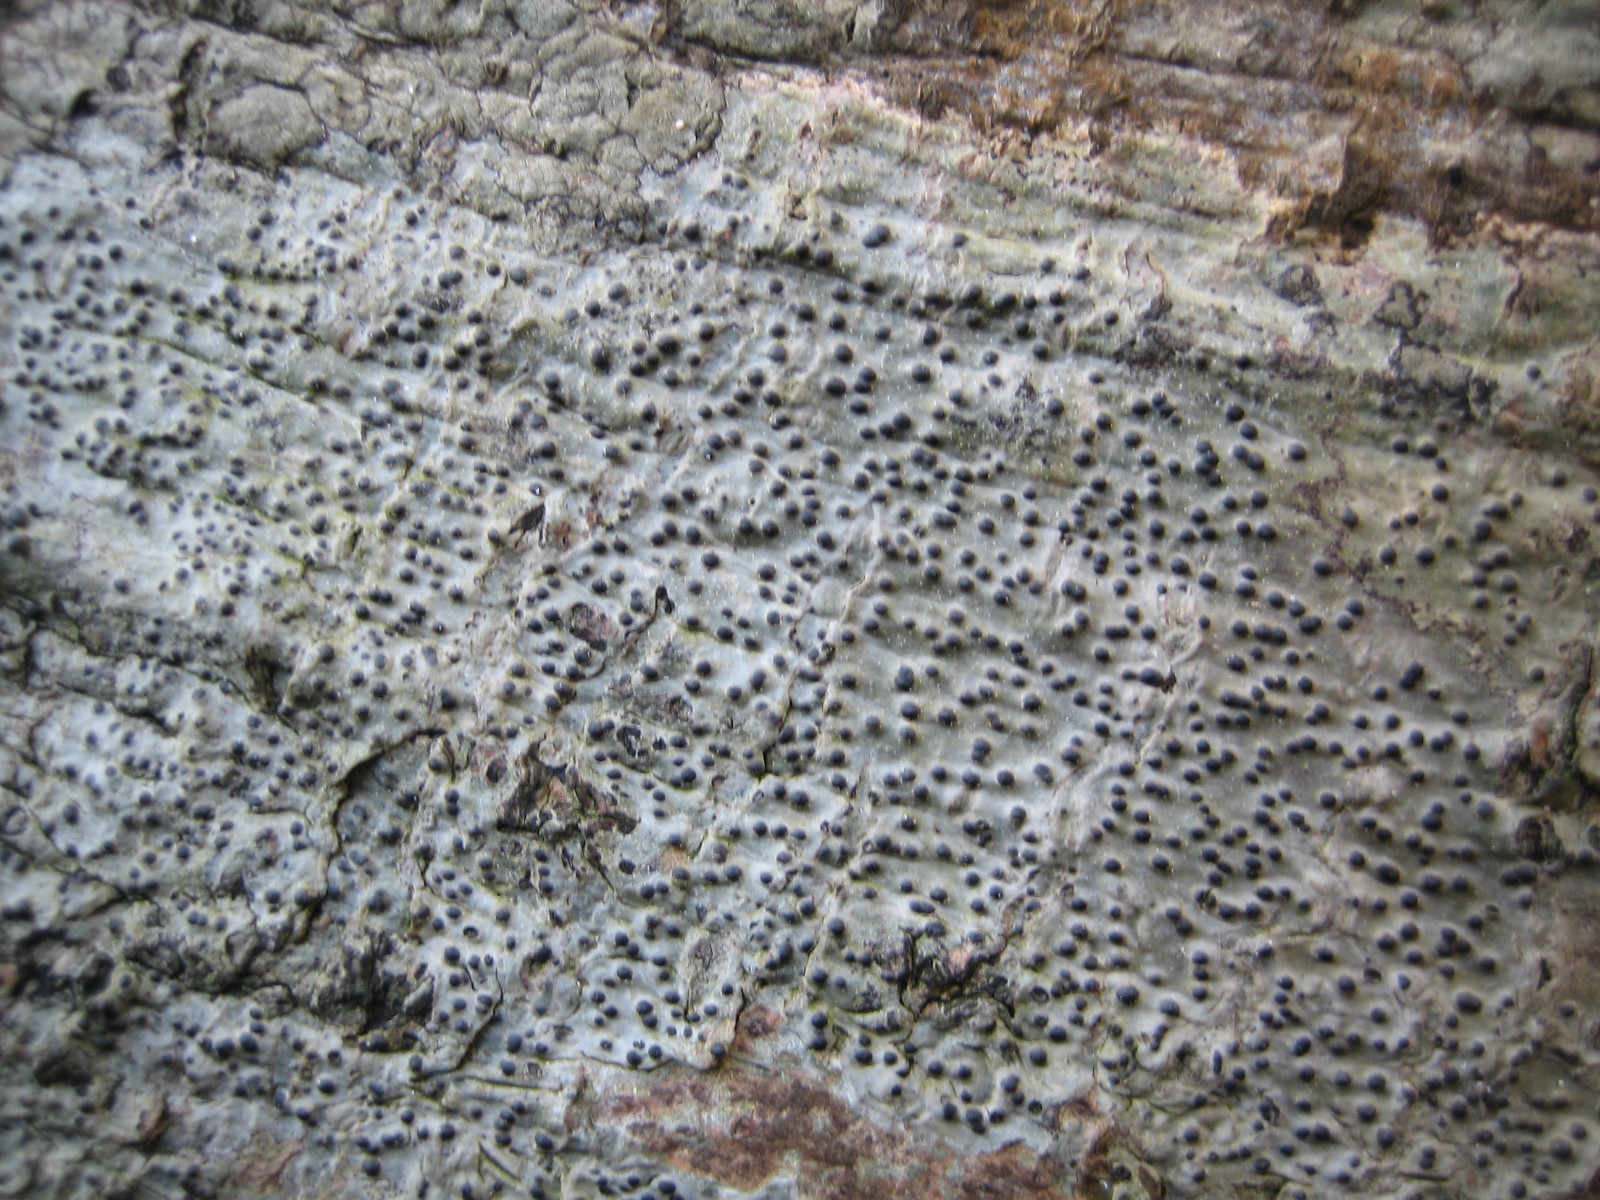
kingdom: Fungi
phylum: Ascomycota
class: Eurotiomycetes
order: Pyrenulales
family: Pyrenulaceae
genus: Pyrenula
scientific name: Pyrenula nitida
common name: glinsende kernelav
